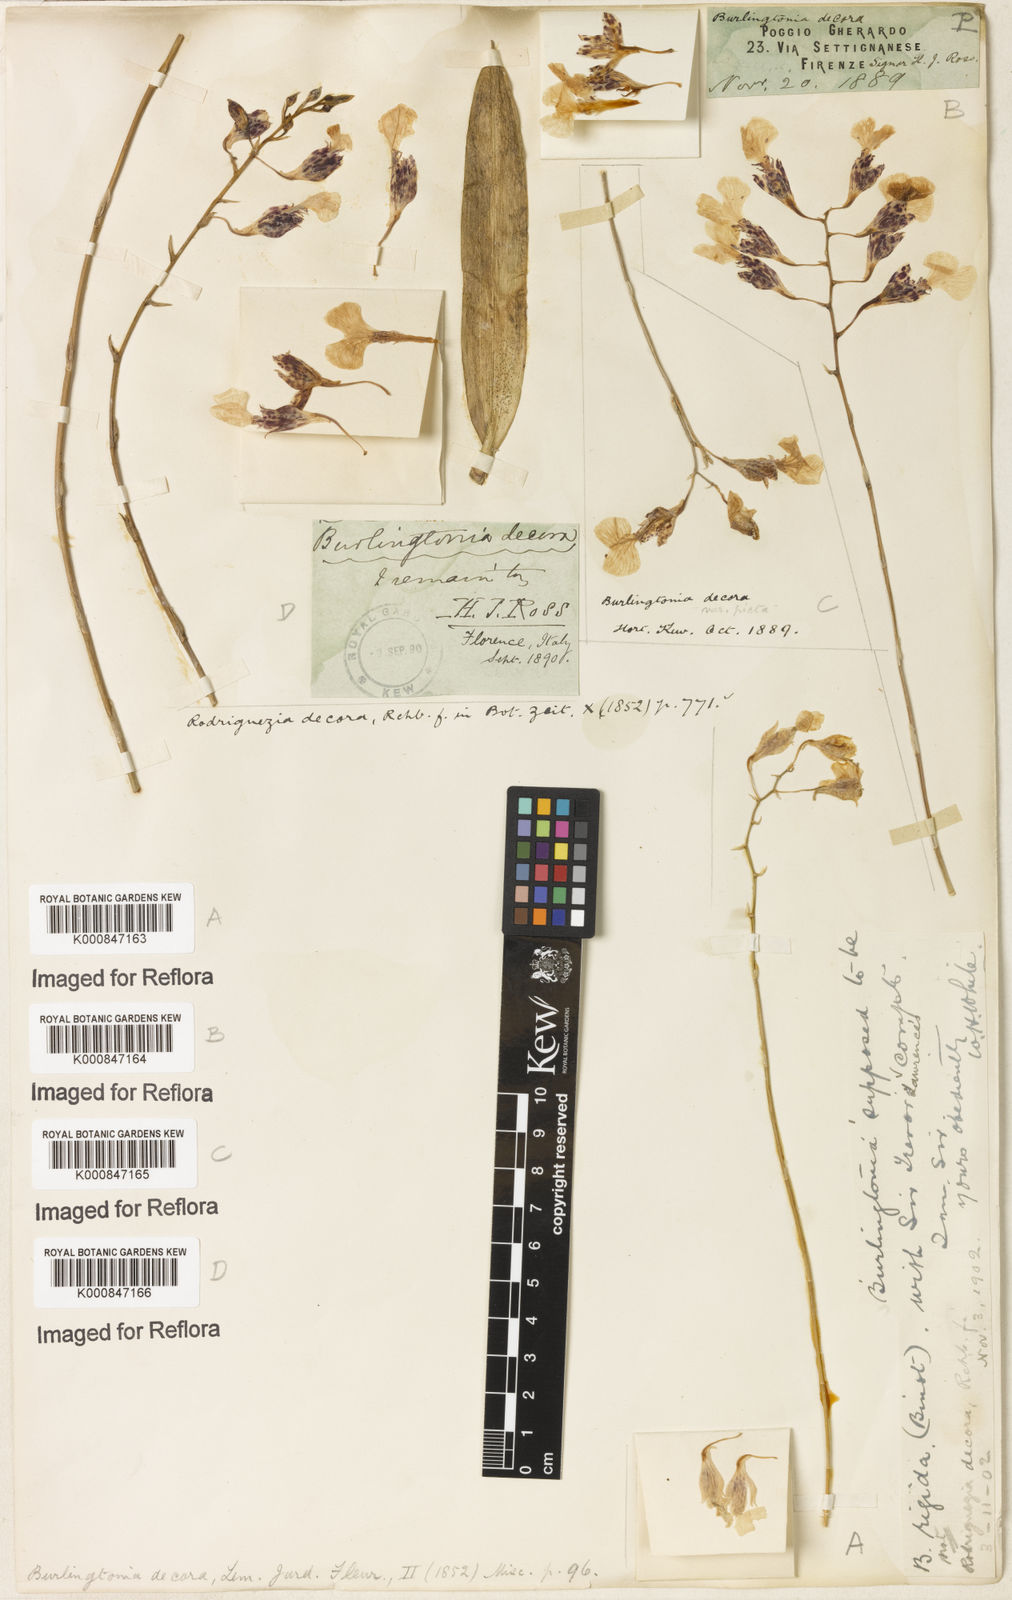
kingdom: Plantae
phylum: Tracheophyta
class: Liliopsida
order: Asparagales
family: Orchidaceae
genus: Rodriguezia
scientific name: Rodriguezia decora
